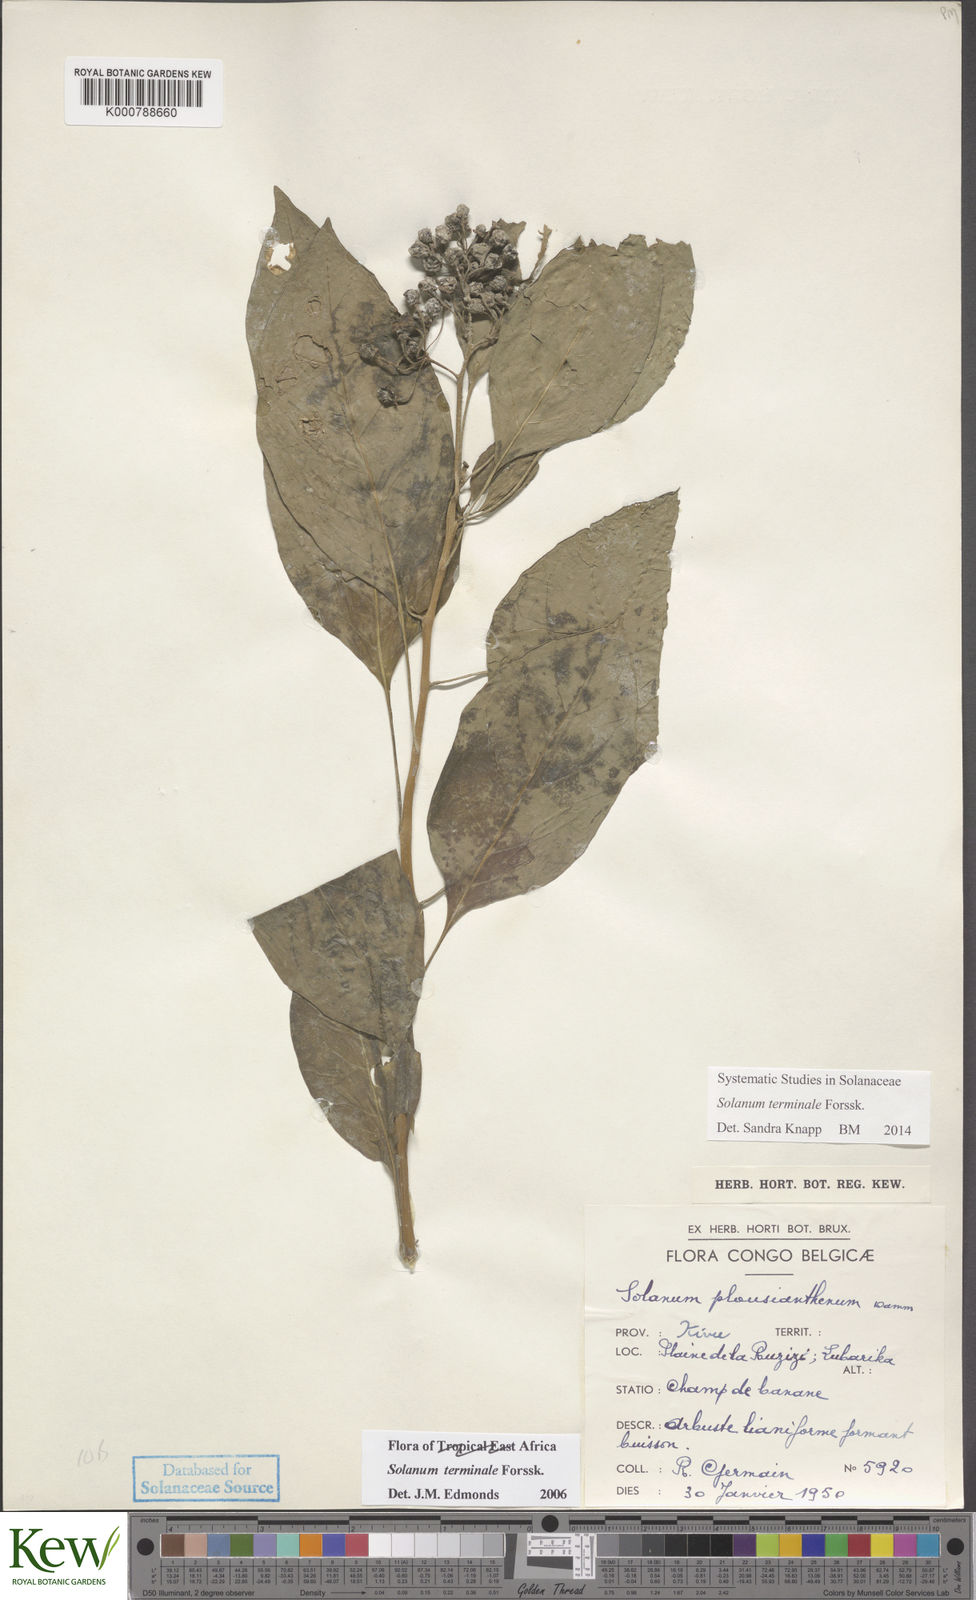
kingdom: Plantae
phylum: Tracheophyta
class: Magnoliopsida
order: Solanales
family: Solanaceae
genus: Solanum
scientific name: Solanum terminale
